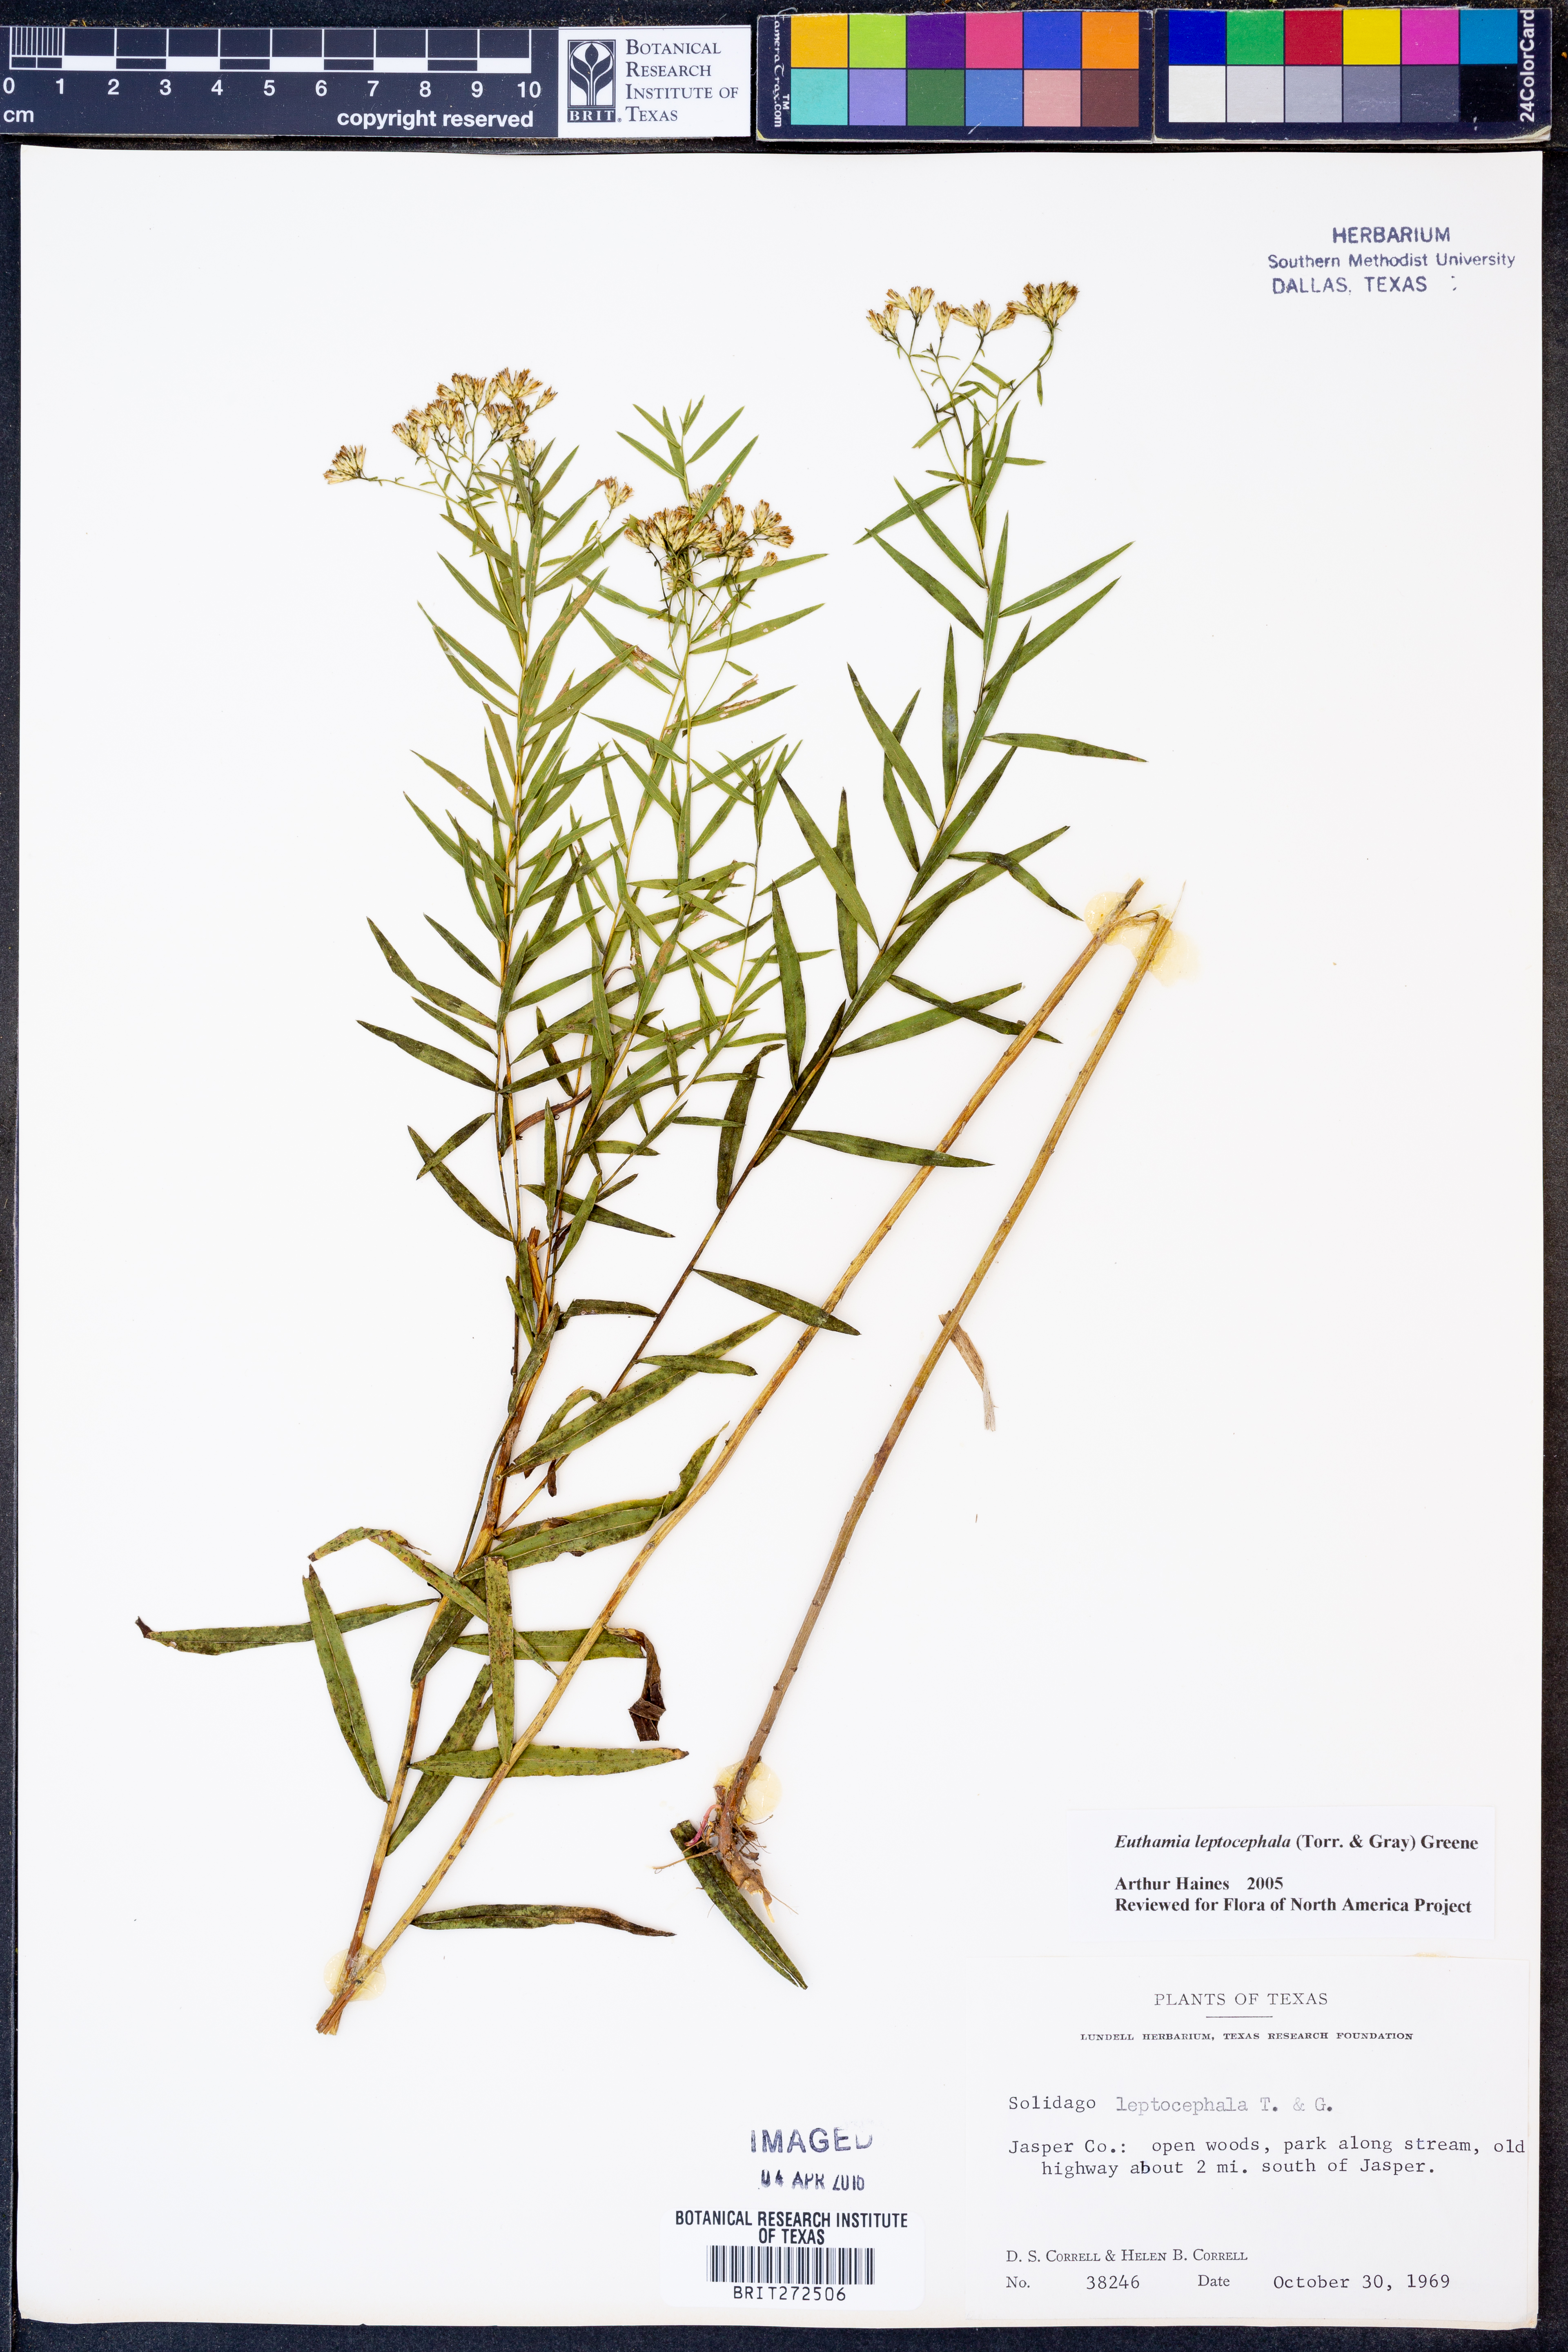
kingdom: Plantae
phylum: Tracheophyta
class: Magnoliopsida
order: Asterales
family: Asteraceae
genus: Euthamia
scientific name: Euthamia leptocephala
